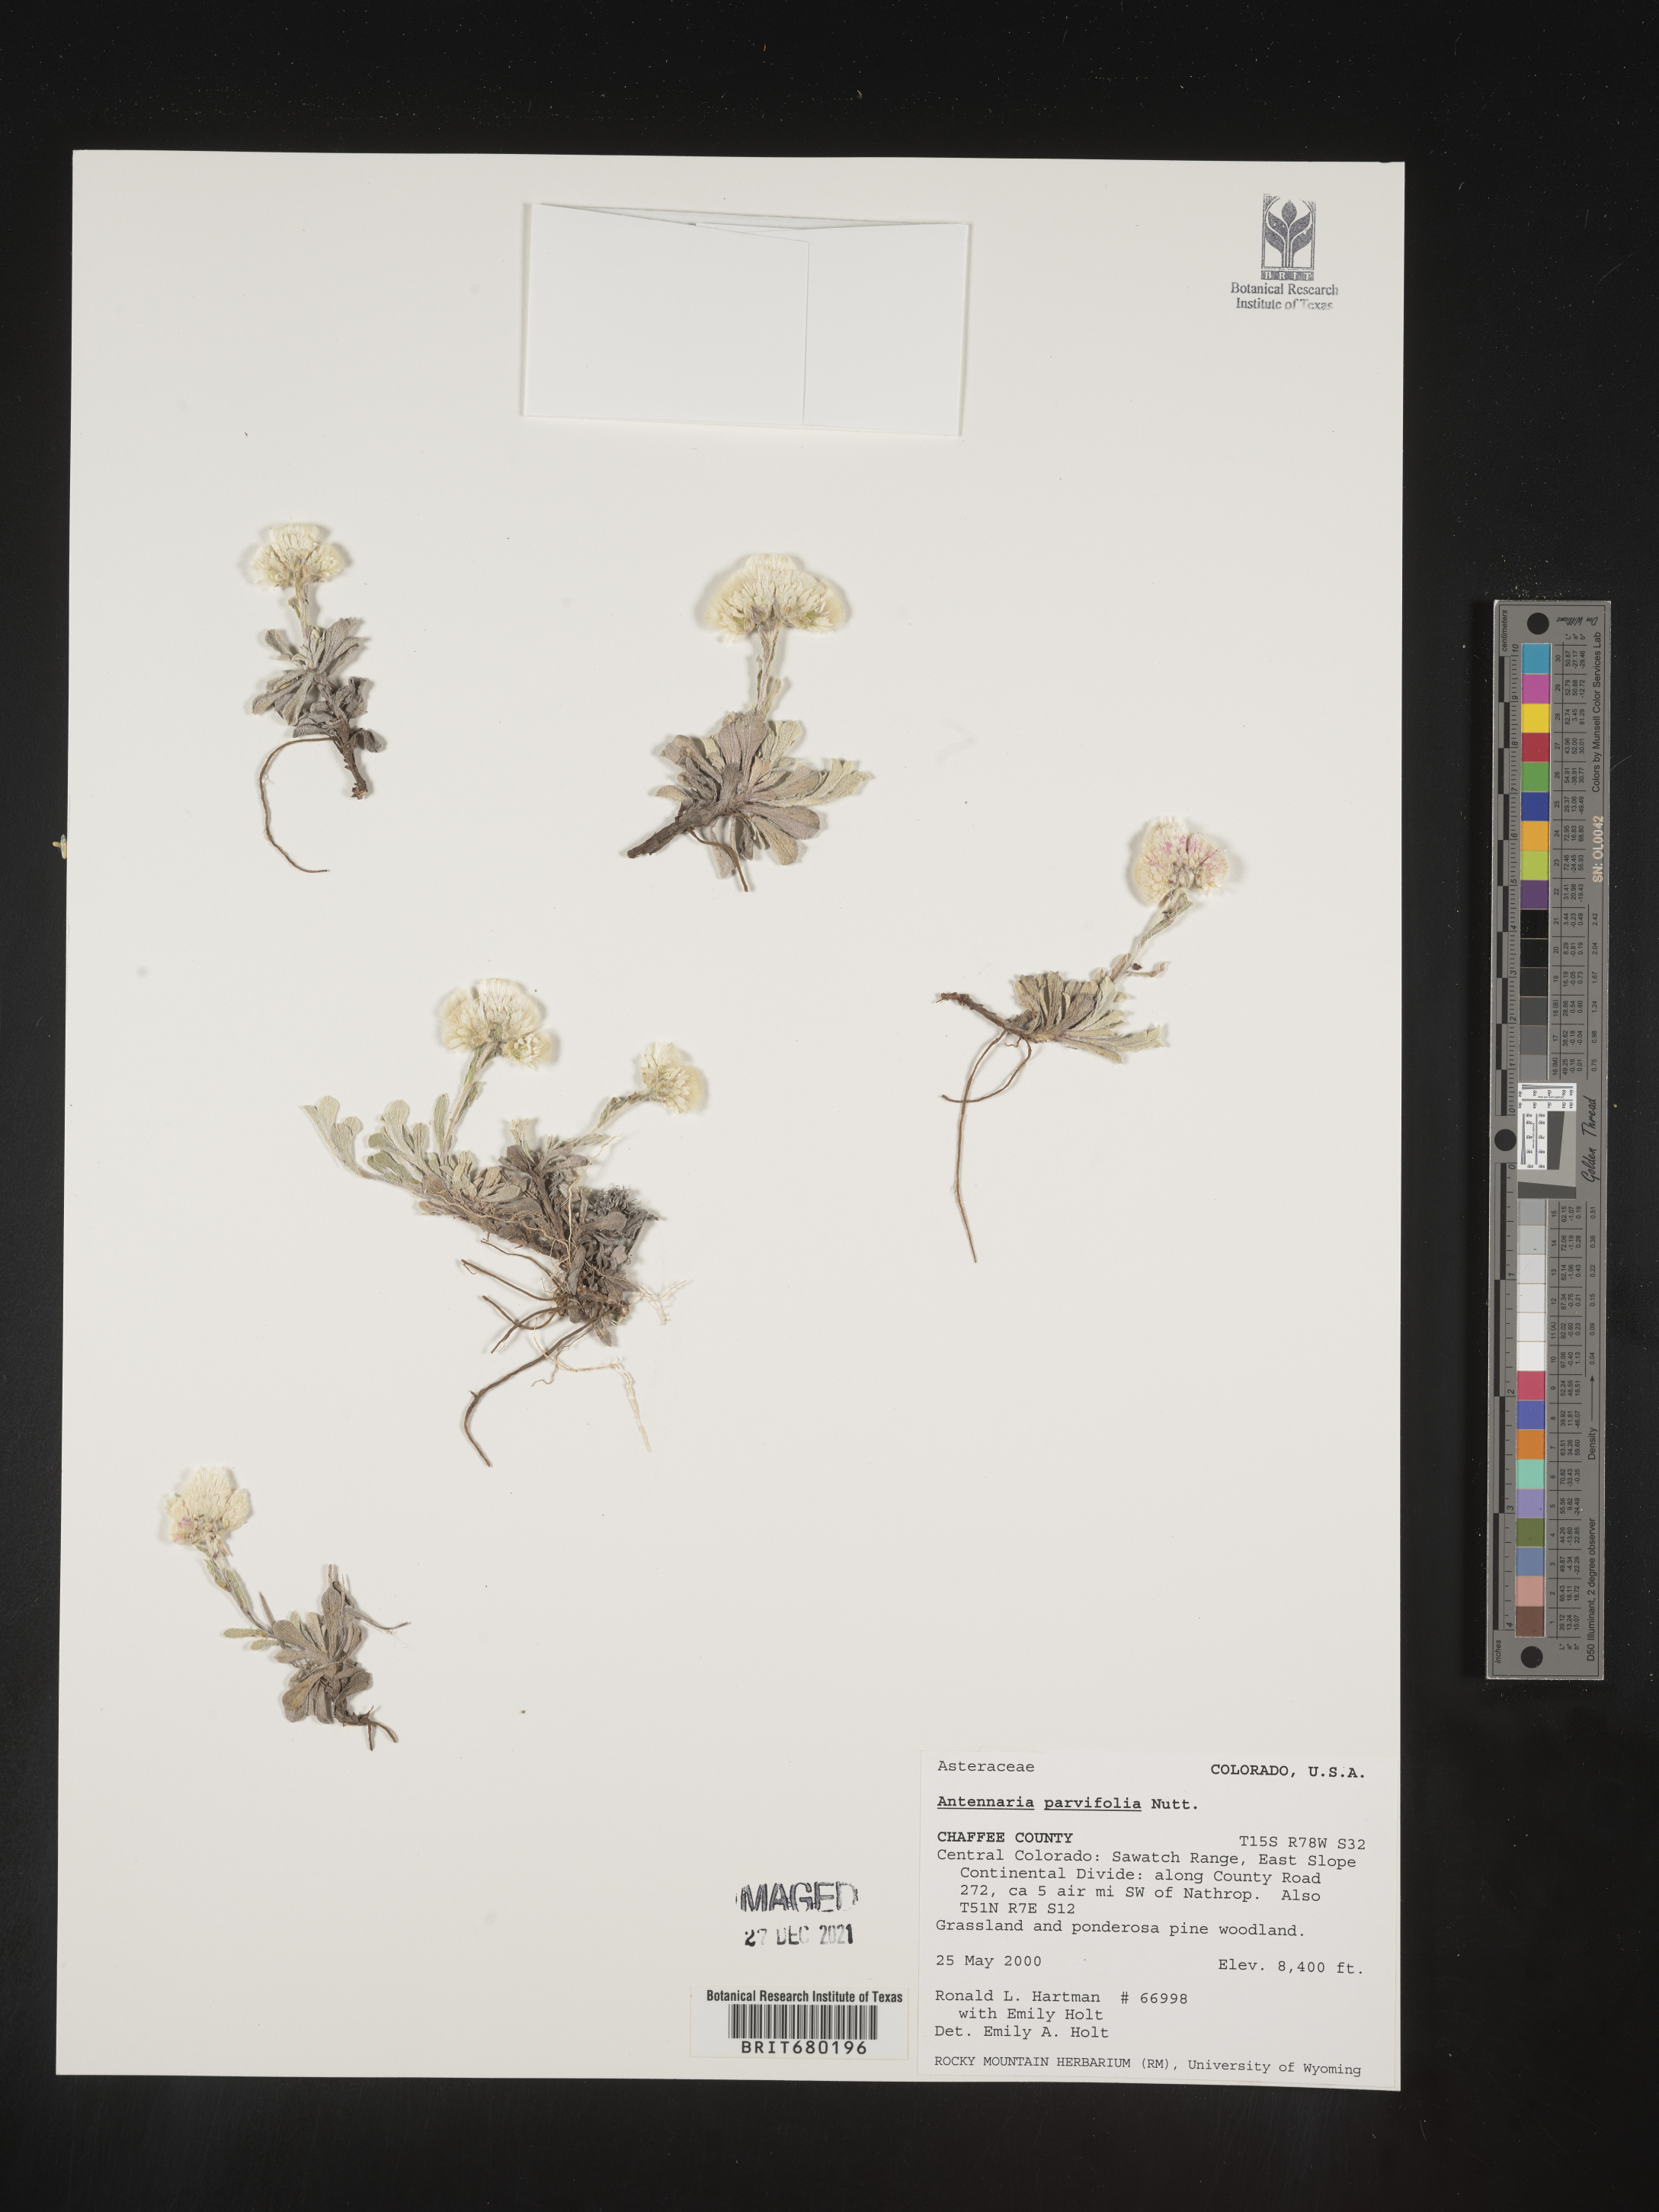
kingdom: Plantae
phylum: Tracheophyta
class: Magnoliopsida
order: Asterales
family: Asteraceae
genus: Antennaria
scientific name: Antennaria plantaginifolia
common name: Plantain-leaved pussytoes
